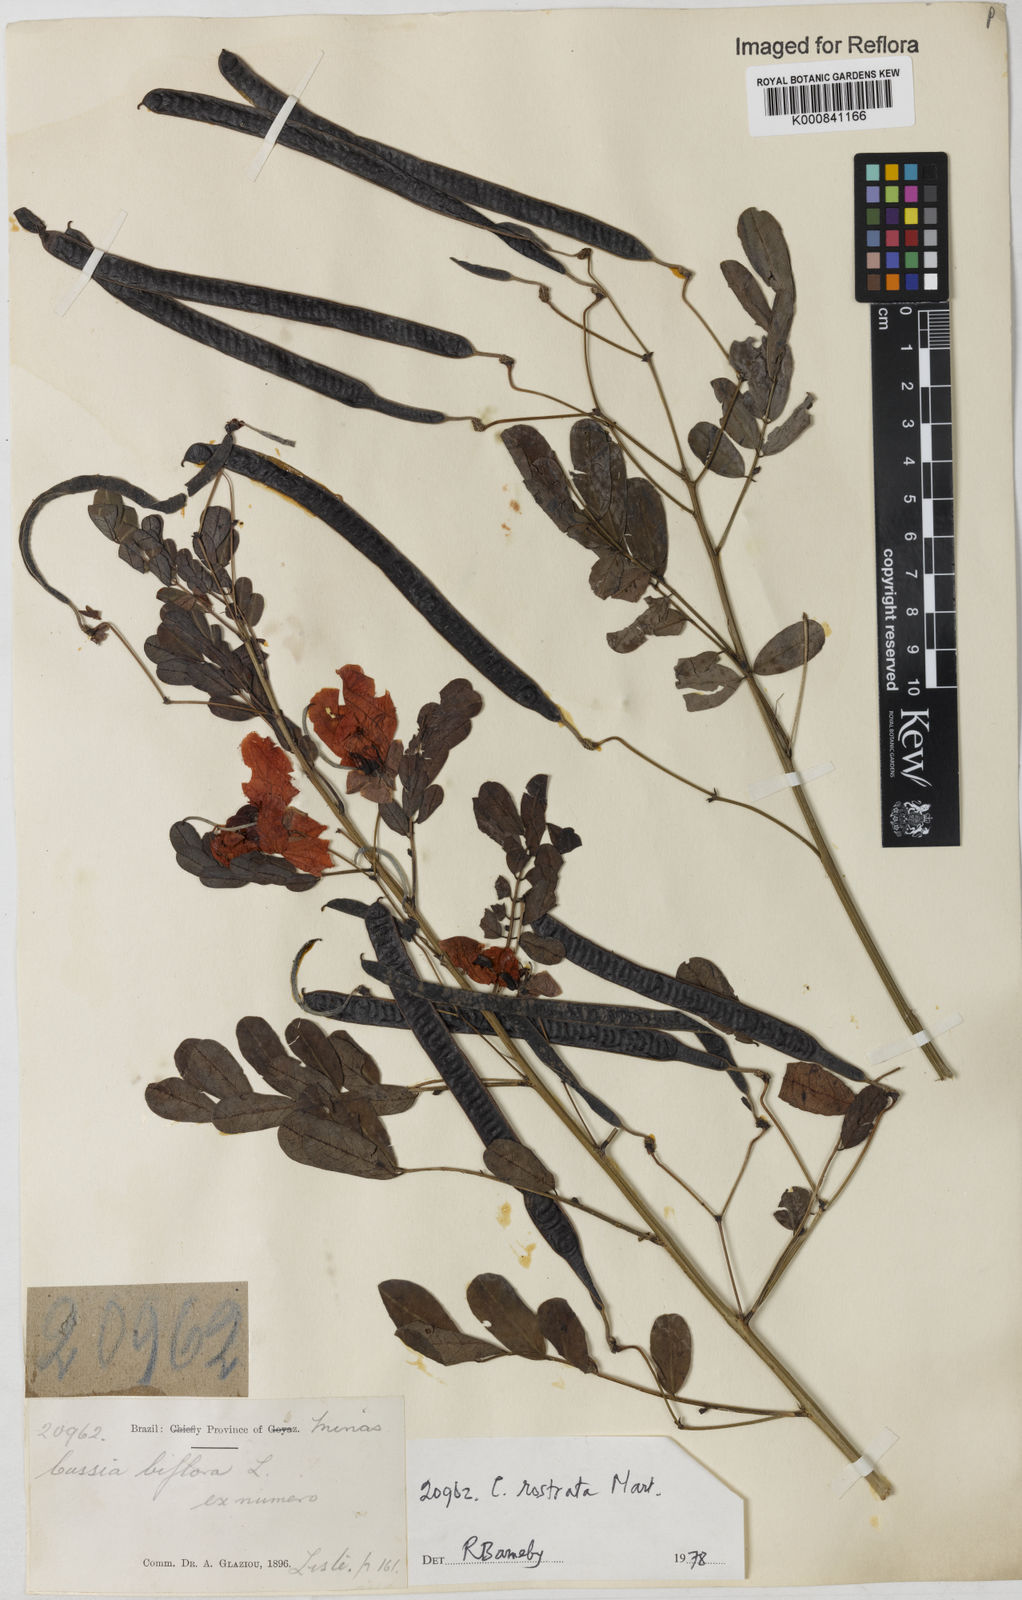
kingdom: Plantae
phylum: Tracheophyta
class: Magnoliopsida
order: Fabales
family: Fabaceae
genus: Senna
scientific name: Senna rostrata
